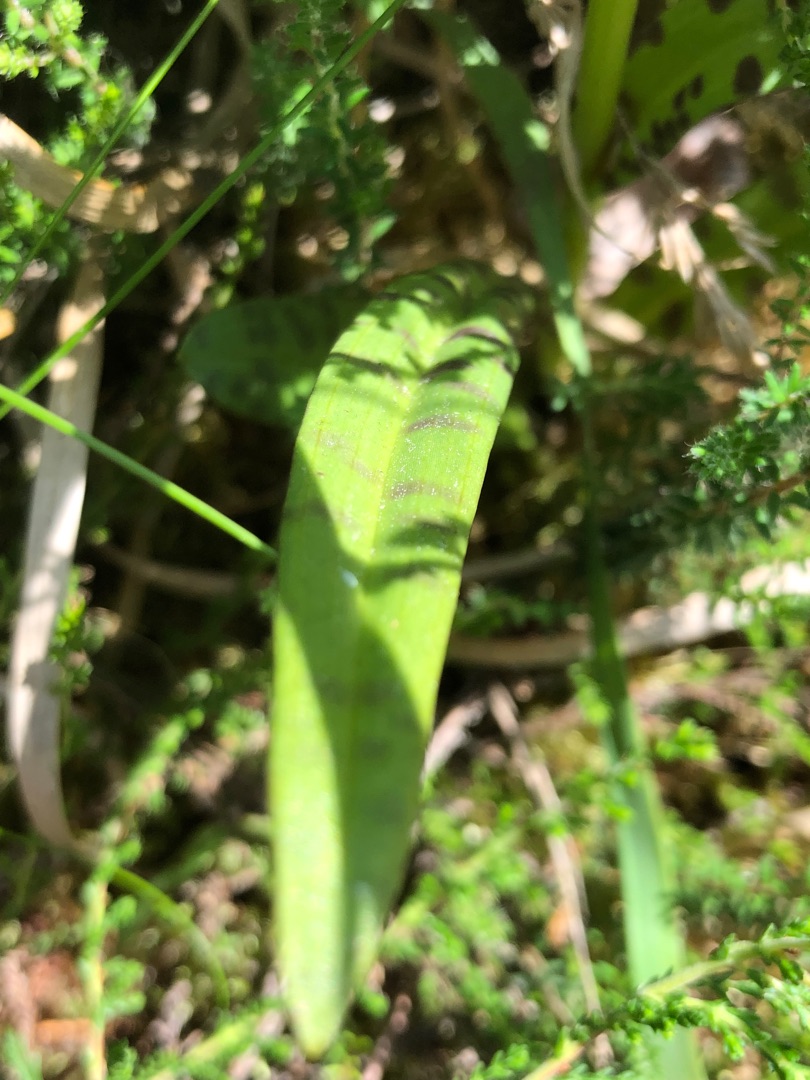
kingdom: Plantae
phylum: Tracheophyta
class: Liliopsida
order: Asparagales
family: Orchidaceae
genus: Dactylorhiza
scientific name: Dactylorhiza maculata
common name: Plettet gøgeurt
